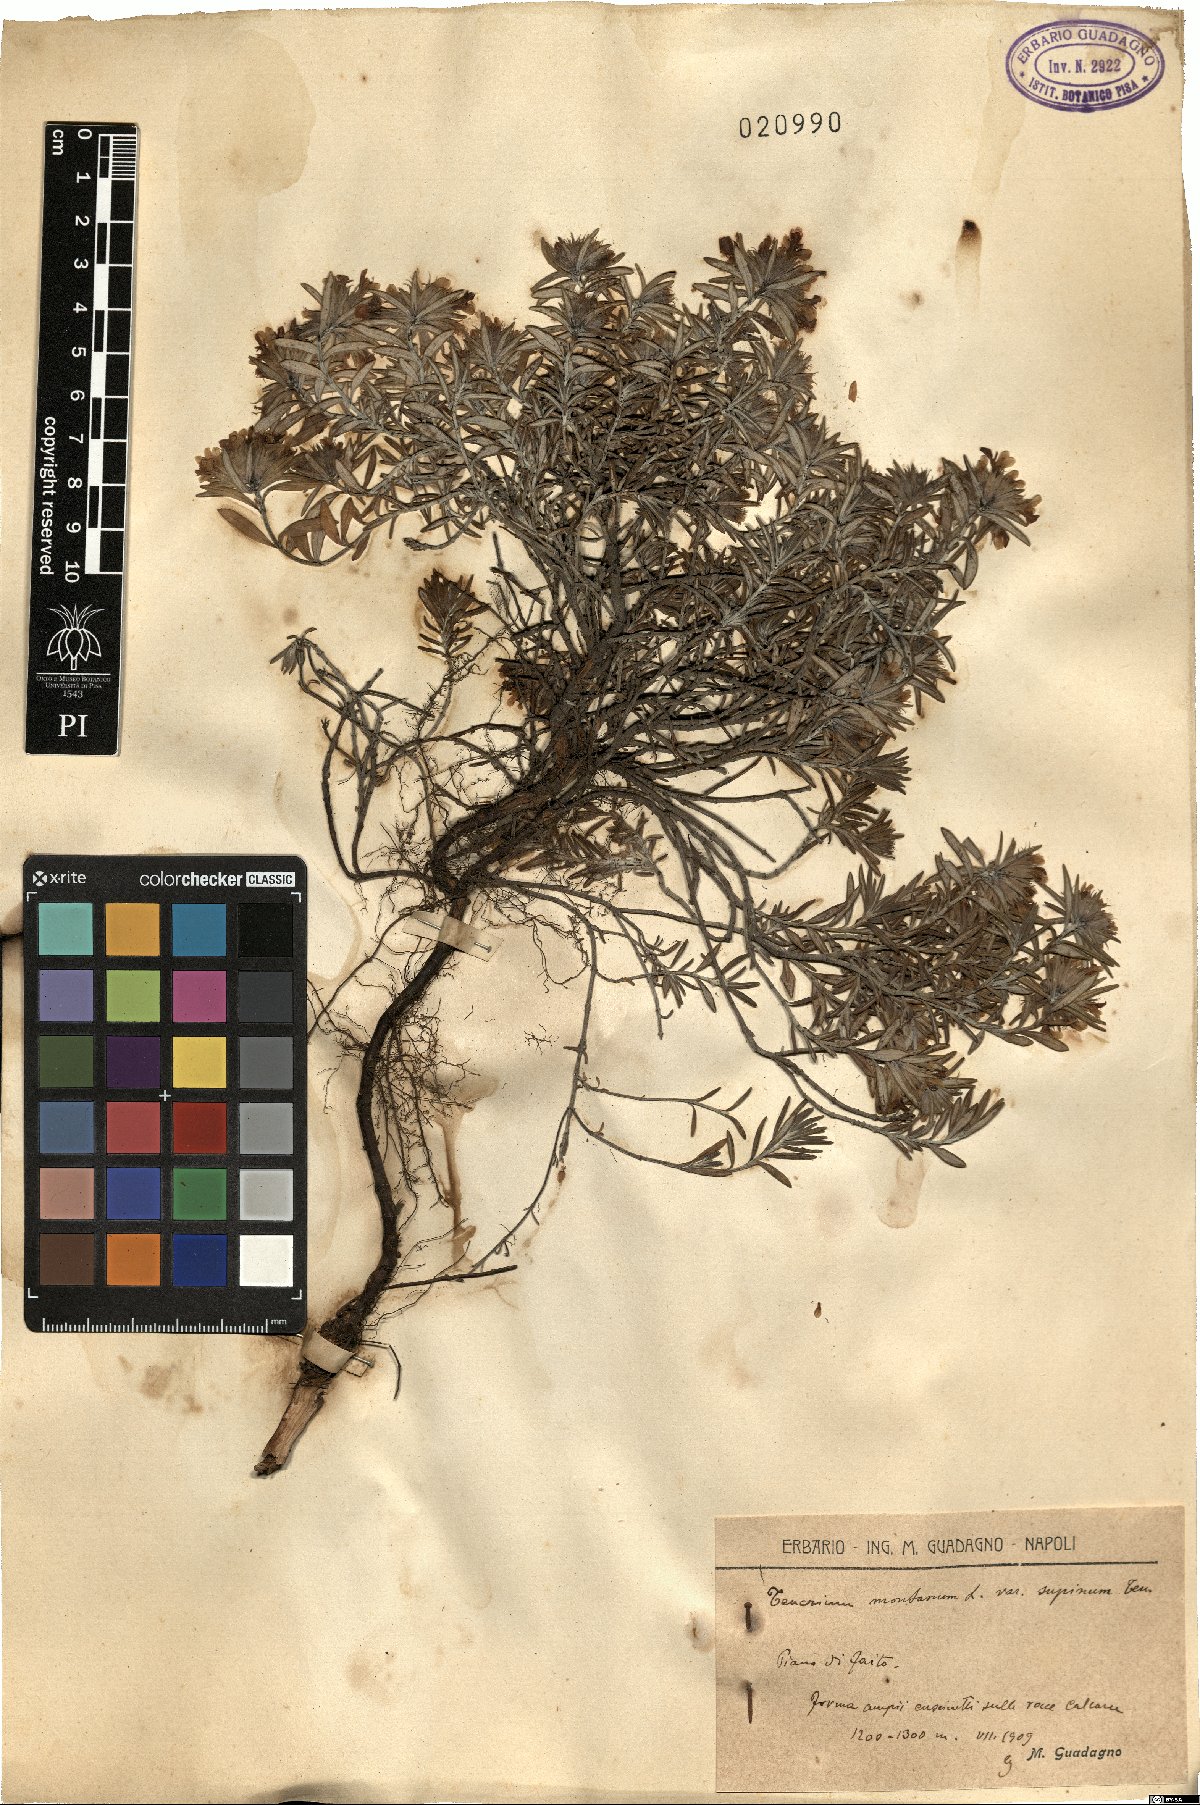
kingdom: Plantae
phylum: Tracheophyta
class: Magnoliopsida
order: Lamiales
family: Lamiaceae
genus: Teucrium
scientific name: Teucrium montanum
